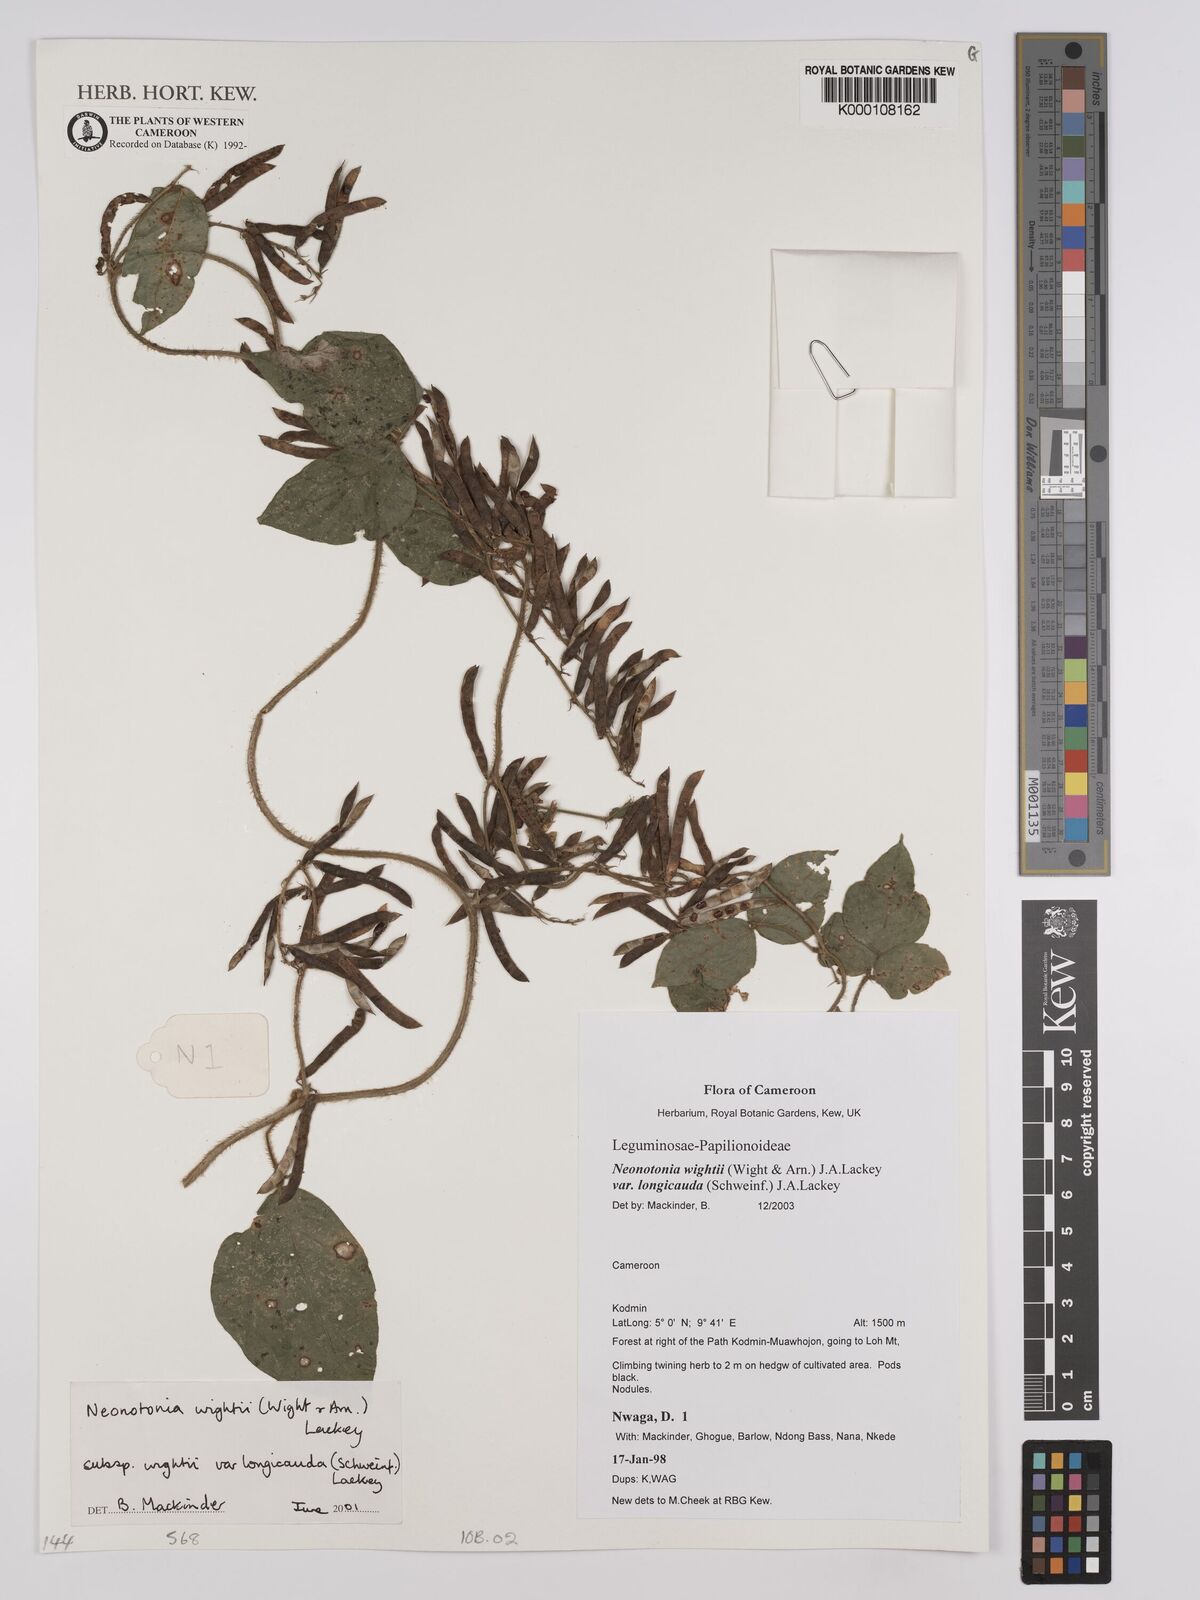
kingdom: Plantae
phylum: Tracheophyta
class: Magnoliopsida
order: Fabales
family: Fabaceae
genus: Neonotonia
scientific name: Neonotonia wightii
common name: Perennial soybean
